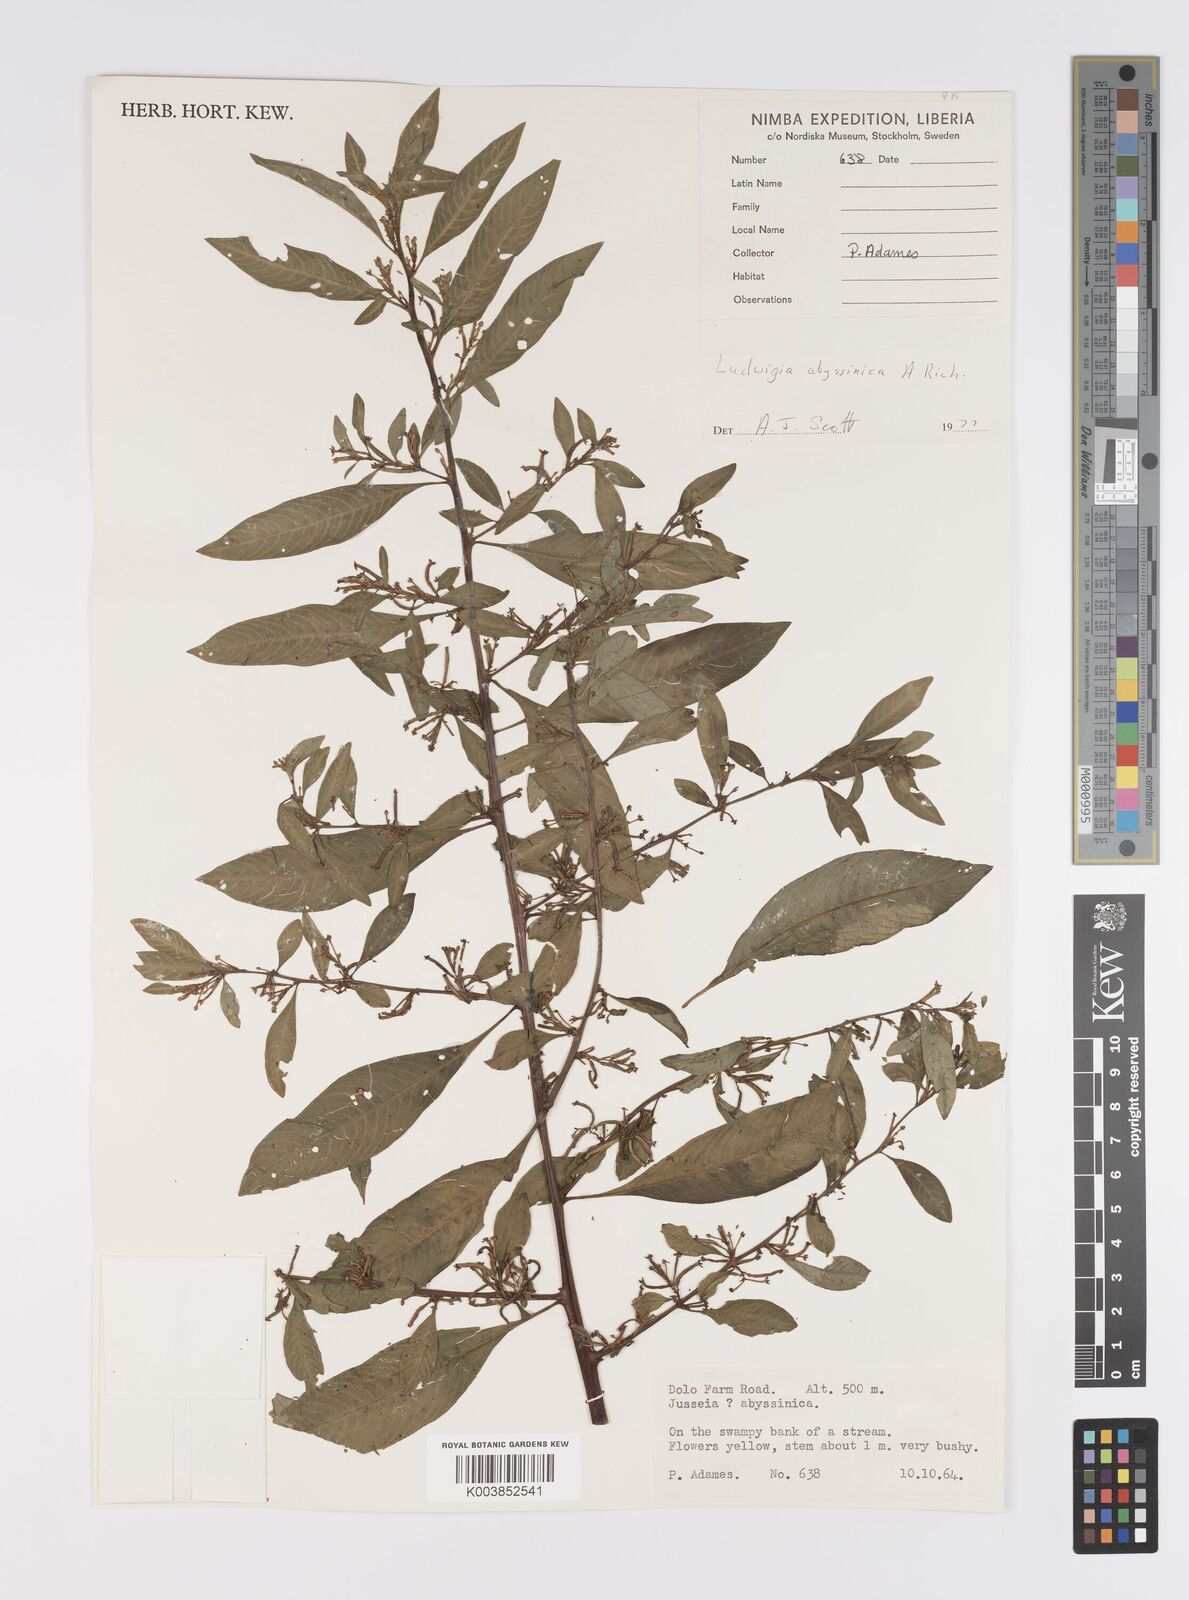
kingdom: Plantae
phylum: Tracheophyta
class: Magnoliopsida
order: Myrtales
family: Onagraceae
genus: Ludwigia
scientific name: Ludwigia abyssinica
